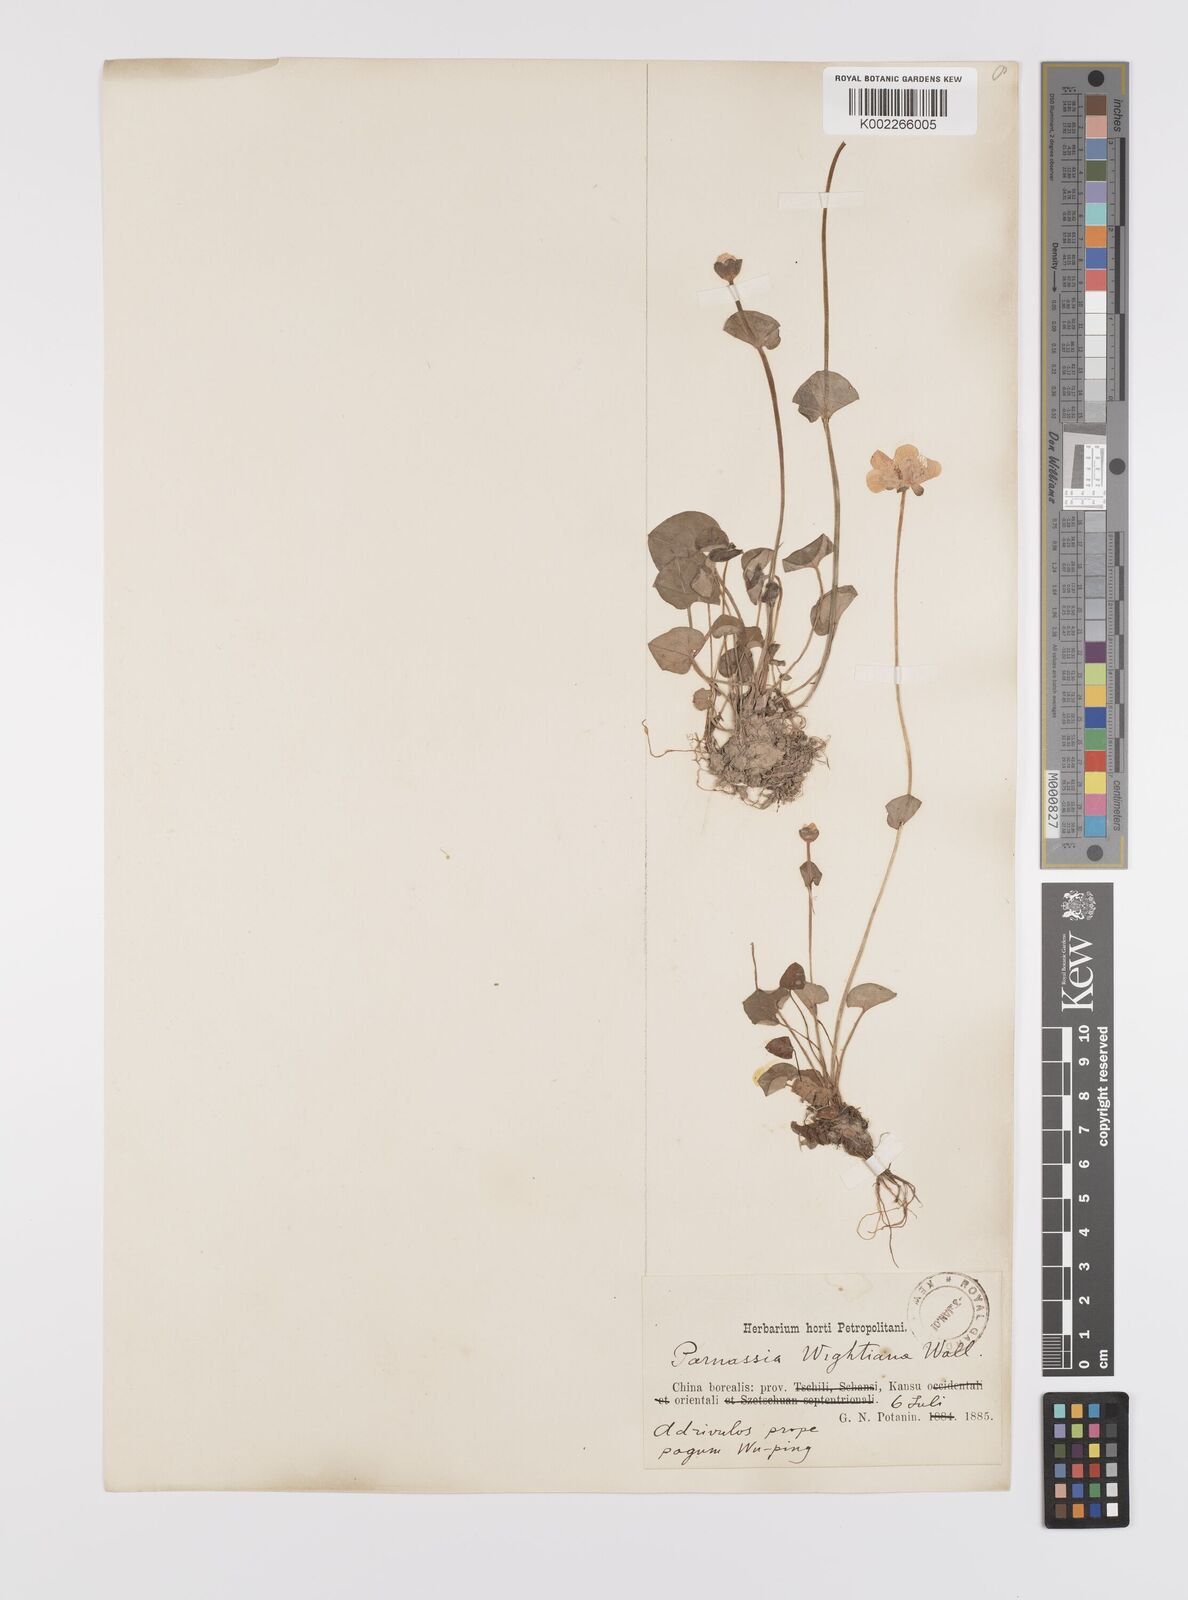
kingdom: Plantae
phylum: Tracheophyta
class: Magnoliopsida
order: Celastrales
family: Parnassiaceae
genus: Parnassia
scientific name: Parnassia wightiana
